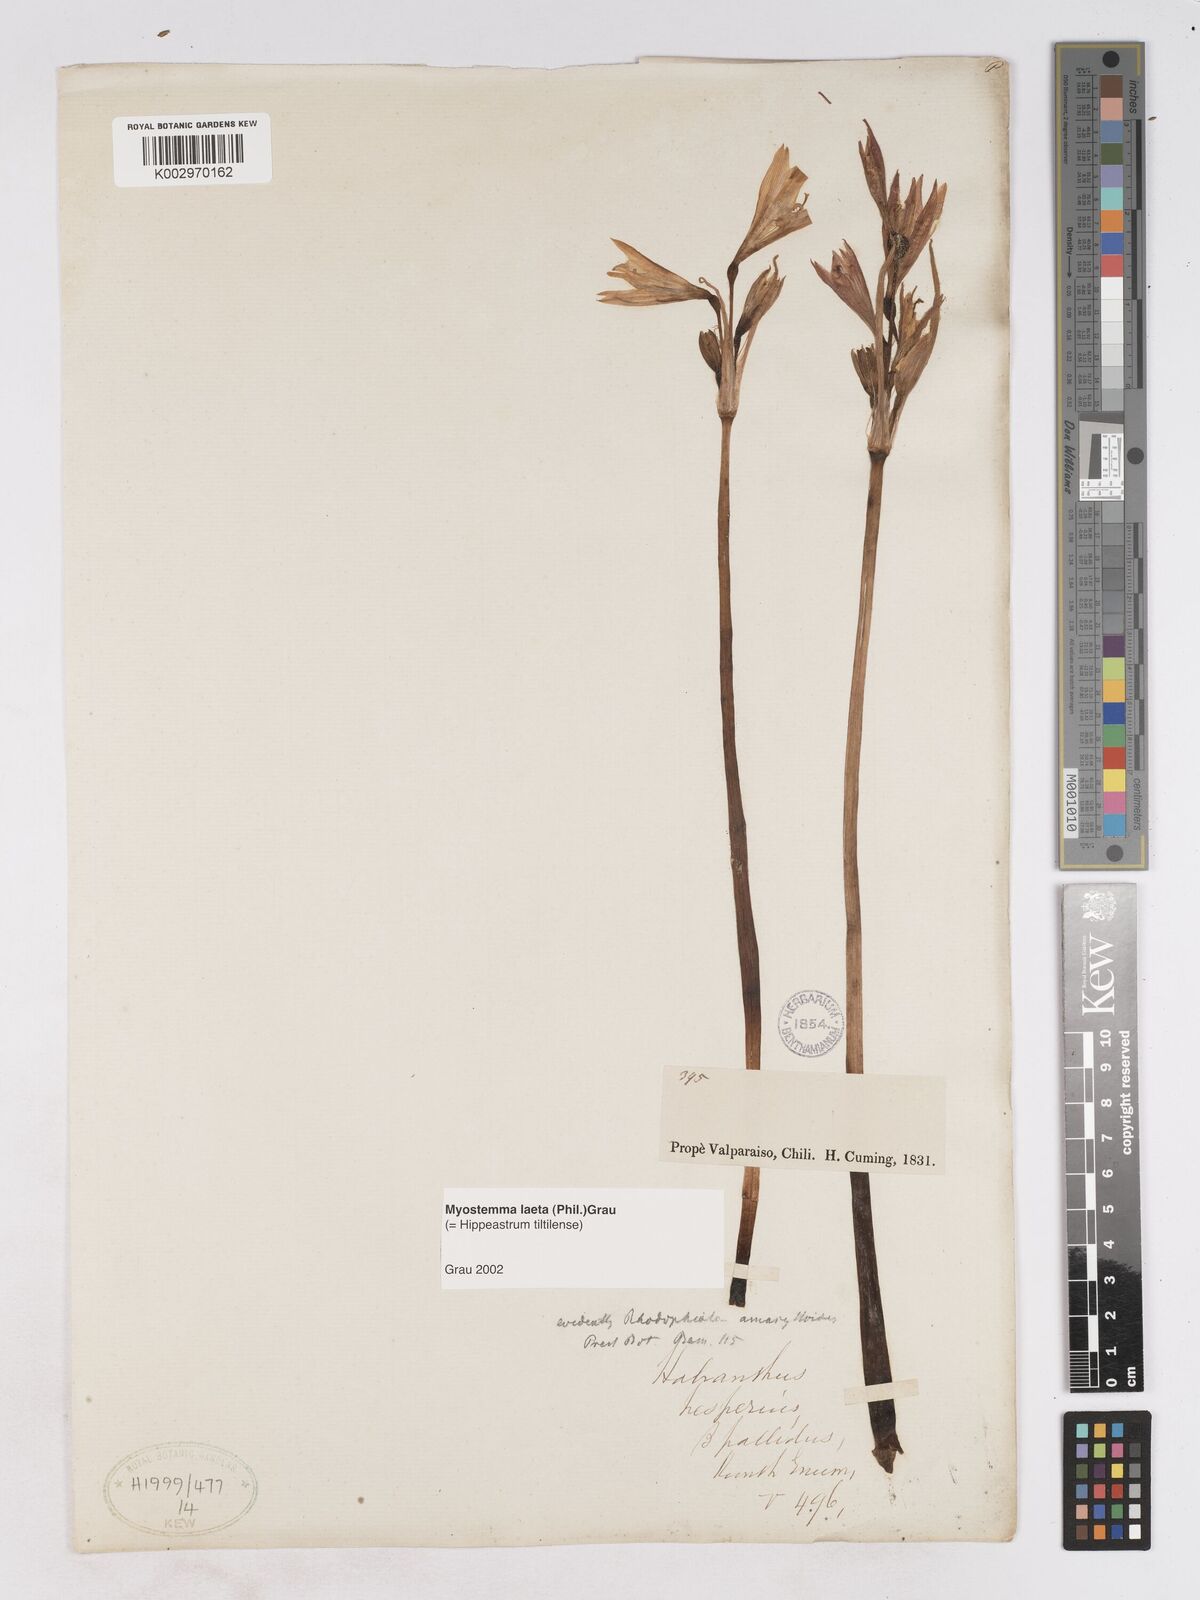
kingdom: Plantae
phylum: Tracheophyta
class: Liliopsida
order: Asparagales
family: Amaryllidaceae
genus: Zephyranthes
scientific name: Zephyranthes laeta
